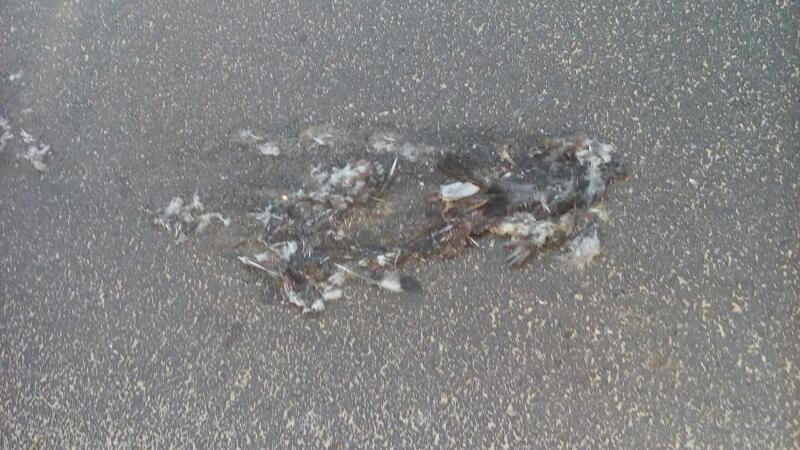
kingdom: Animalia
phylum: Chordata
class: Aves
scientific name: Aves
